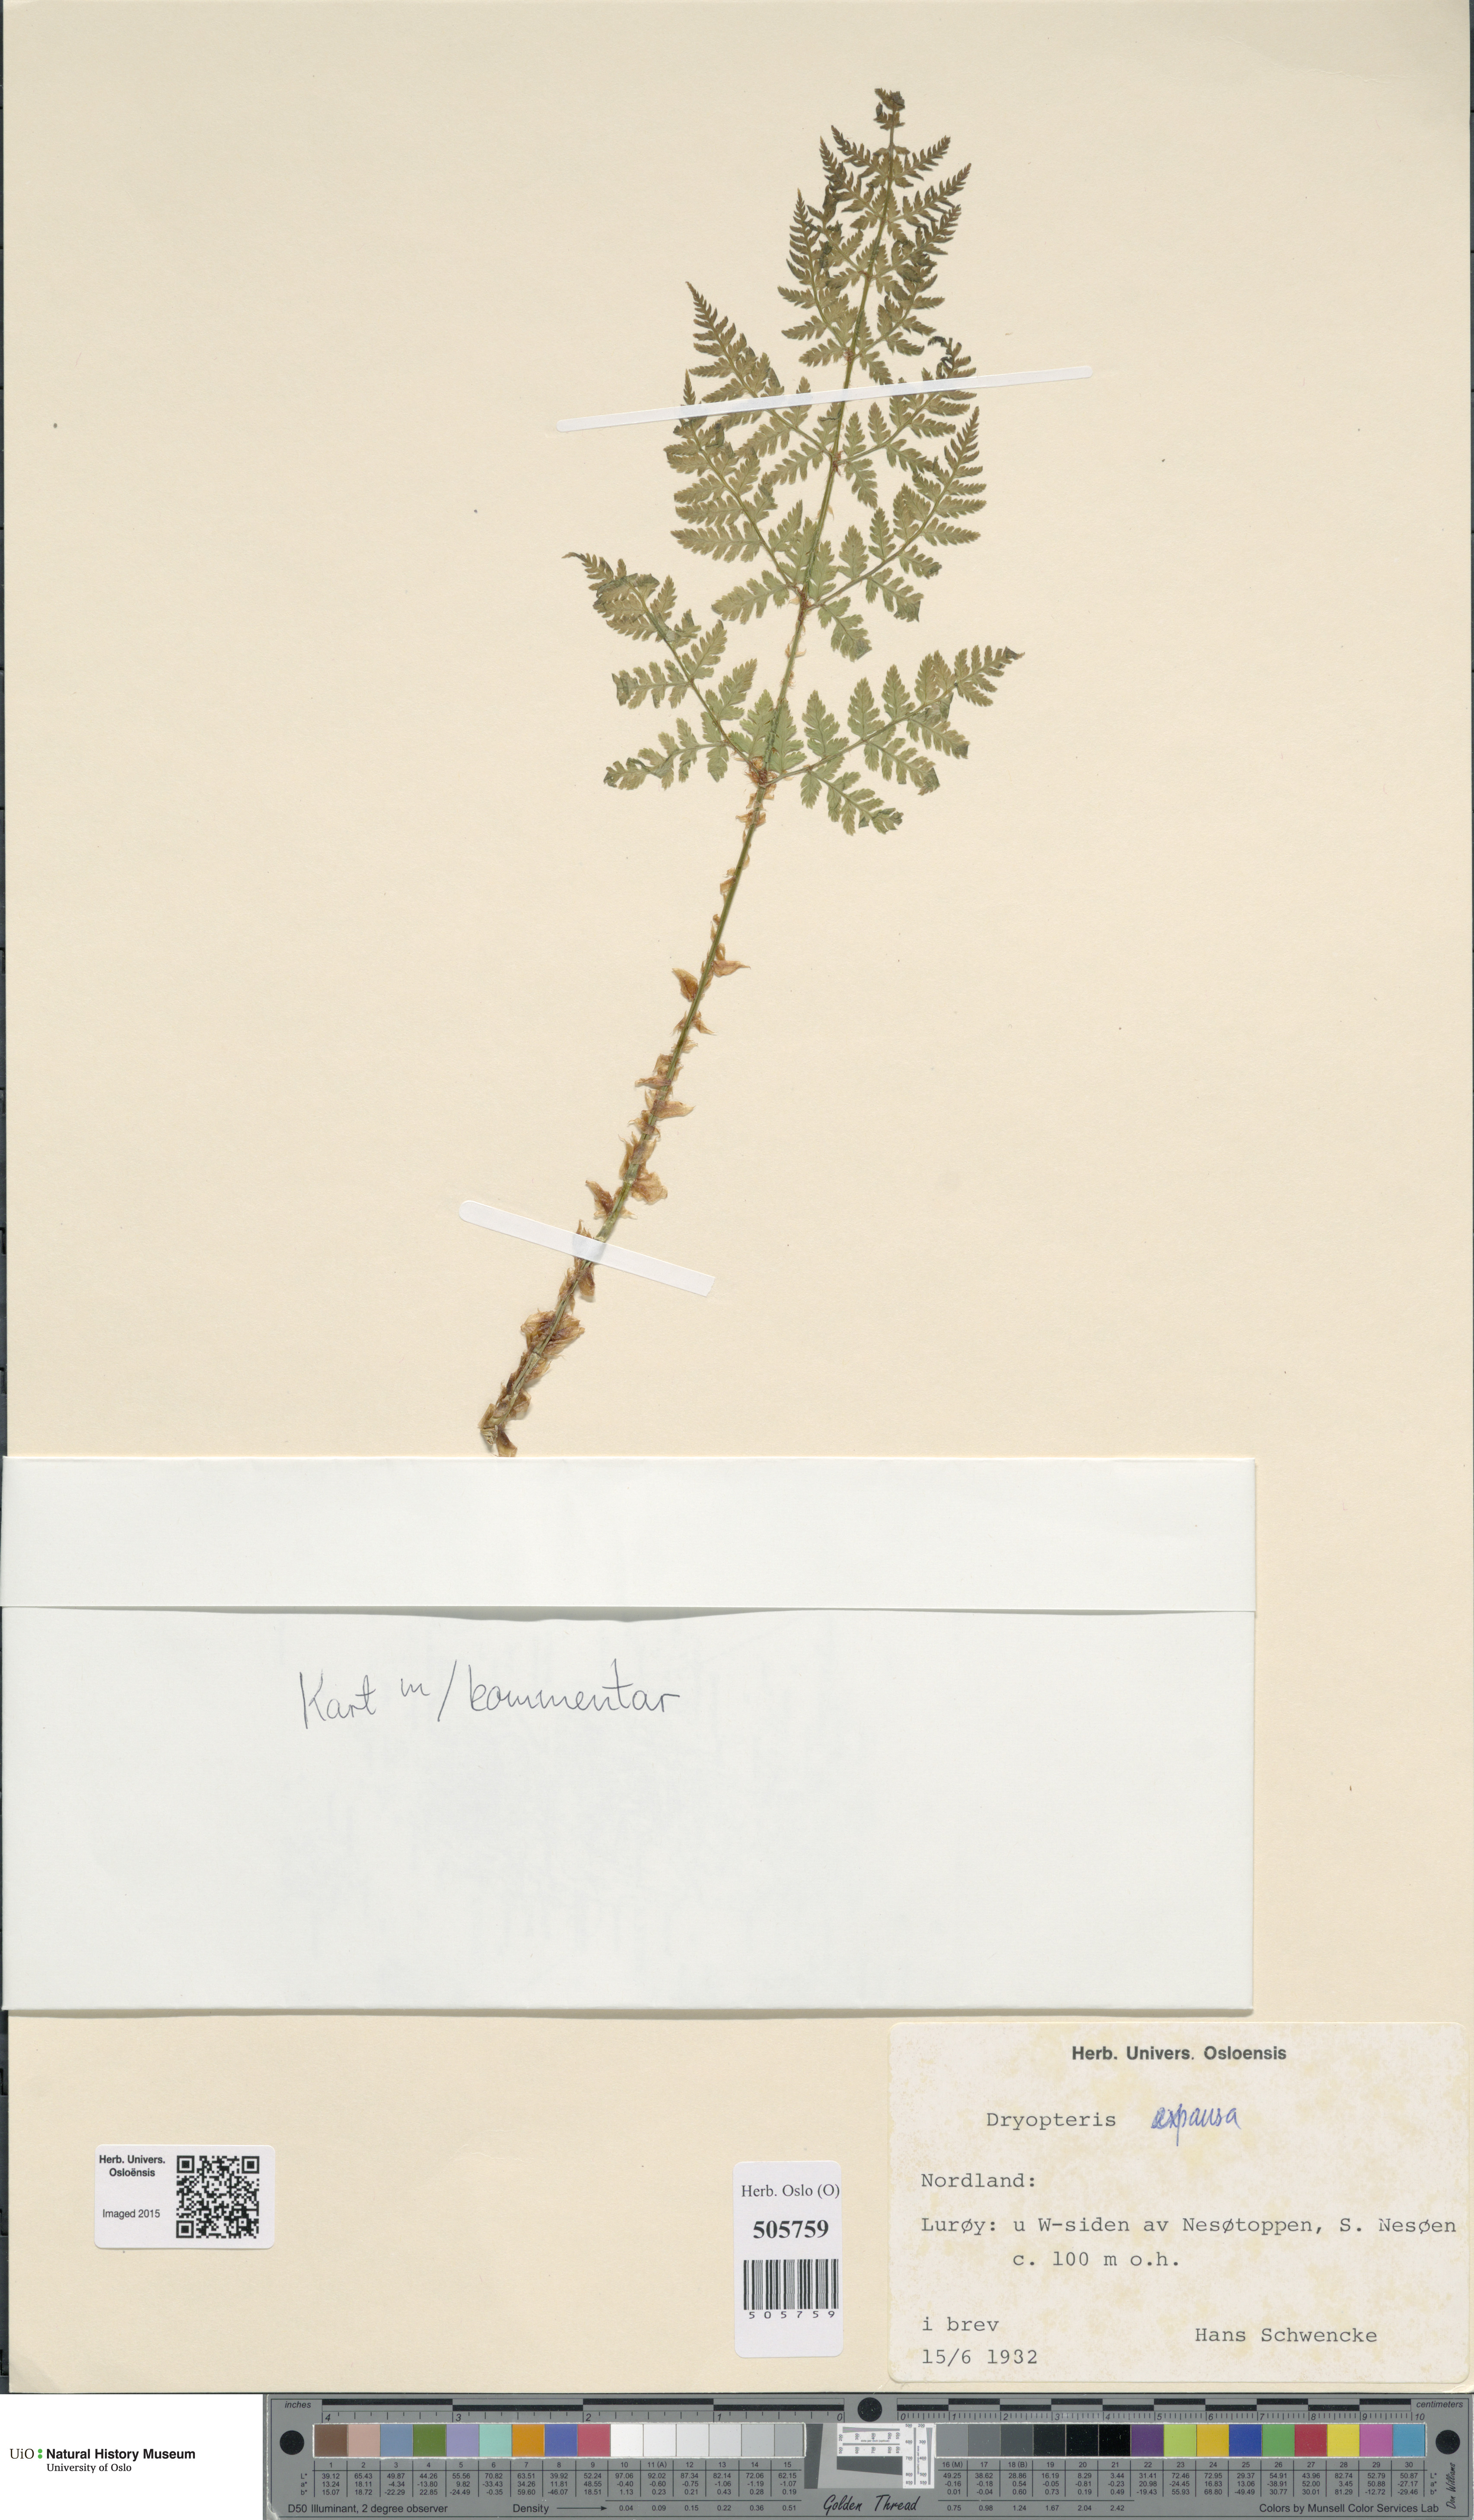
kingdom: Plantae
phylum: Tracheophyta
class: Polypodiopsida
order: Polypodiales
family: Dryopteridaceae
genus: Dryopteris
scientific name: Dryopteris expansa
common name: Northern buckler fern
